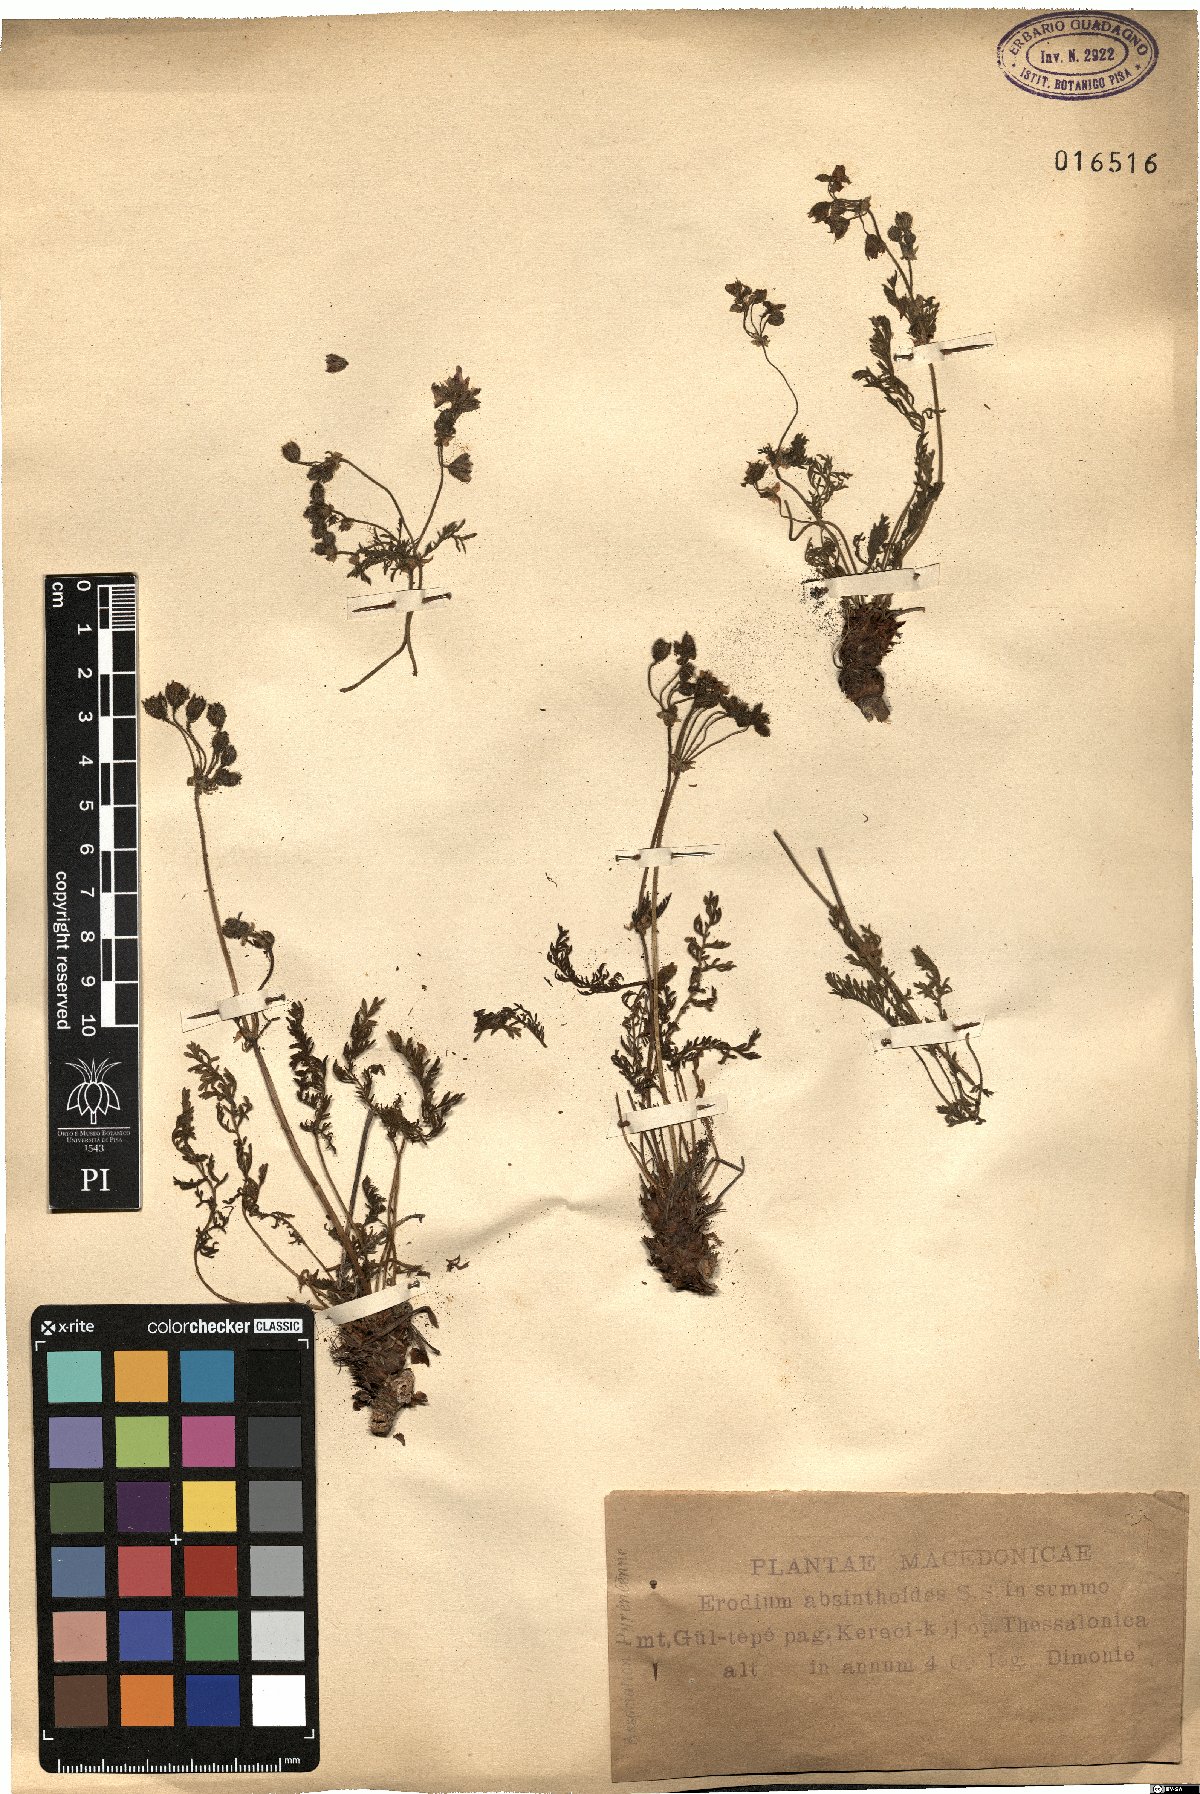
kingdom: Plantae
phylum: Tracheophyta
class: Magnoliopsida
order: Geraniales
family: Geraniaceae
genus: Erodium
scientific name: Erodium absinthoides
